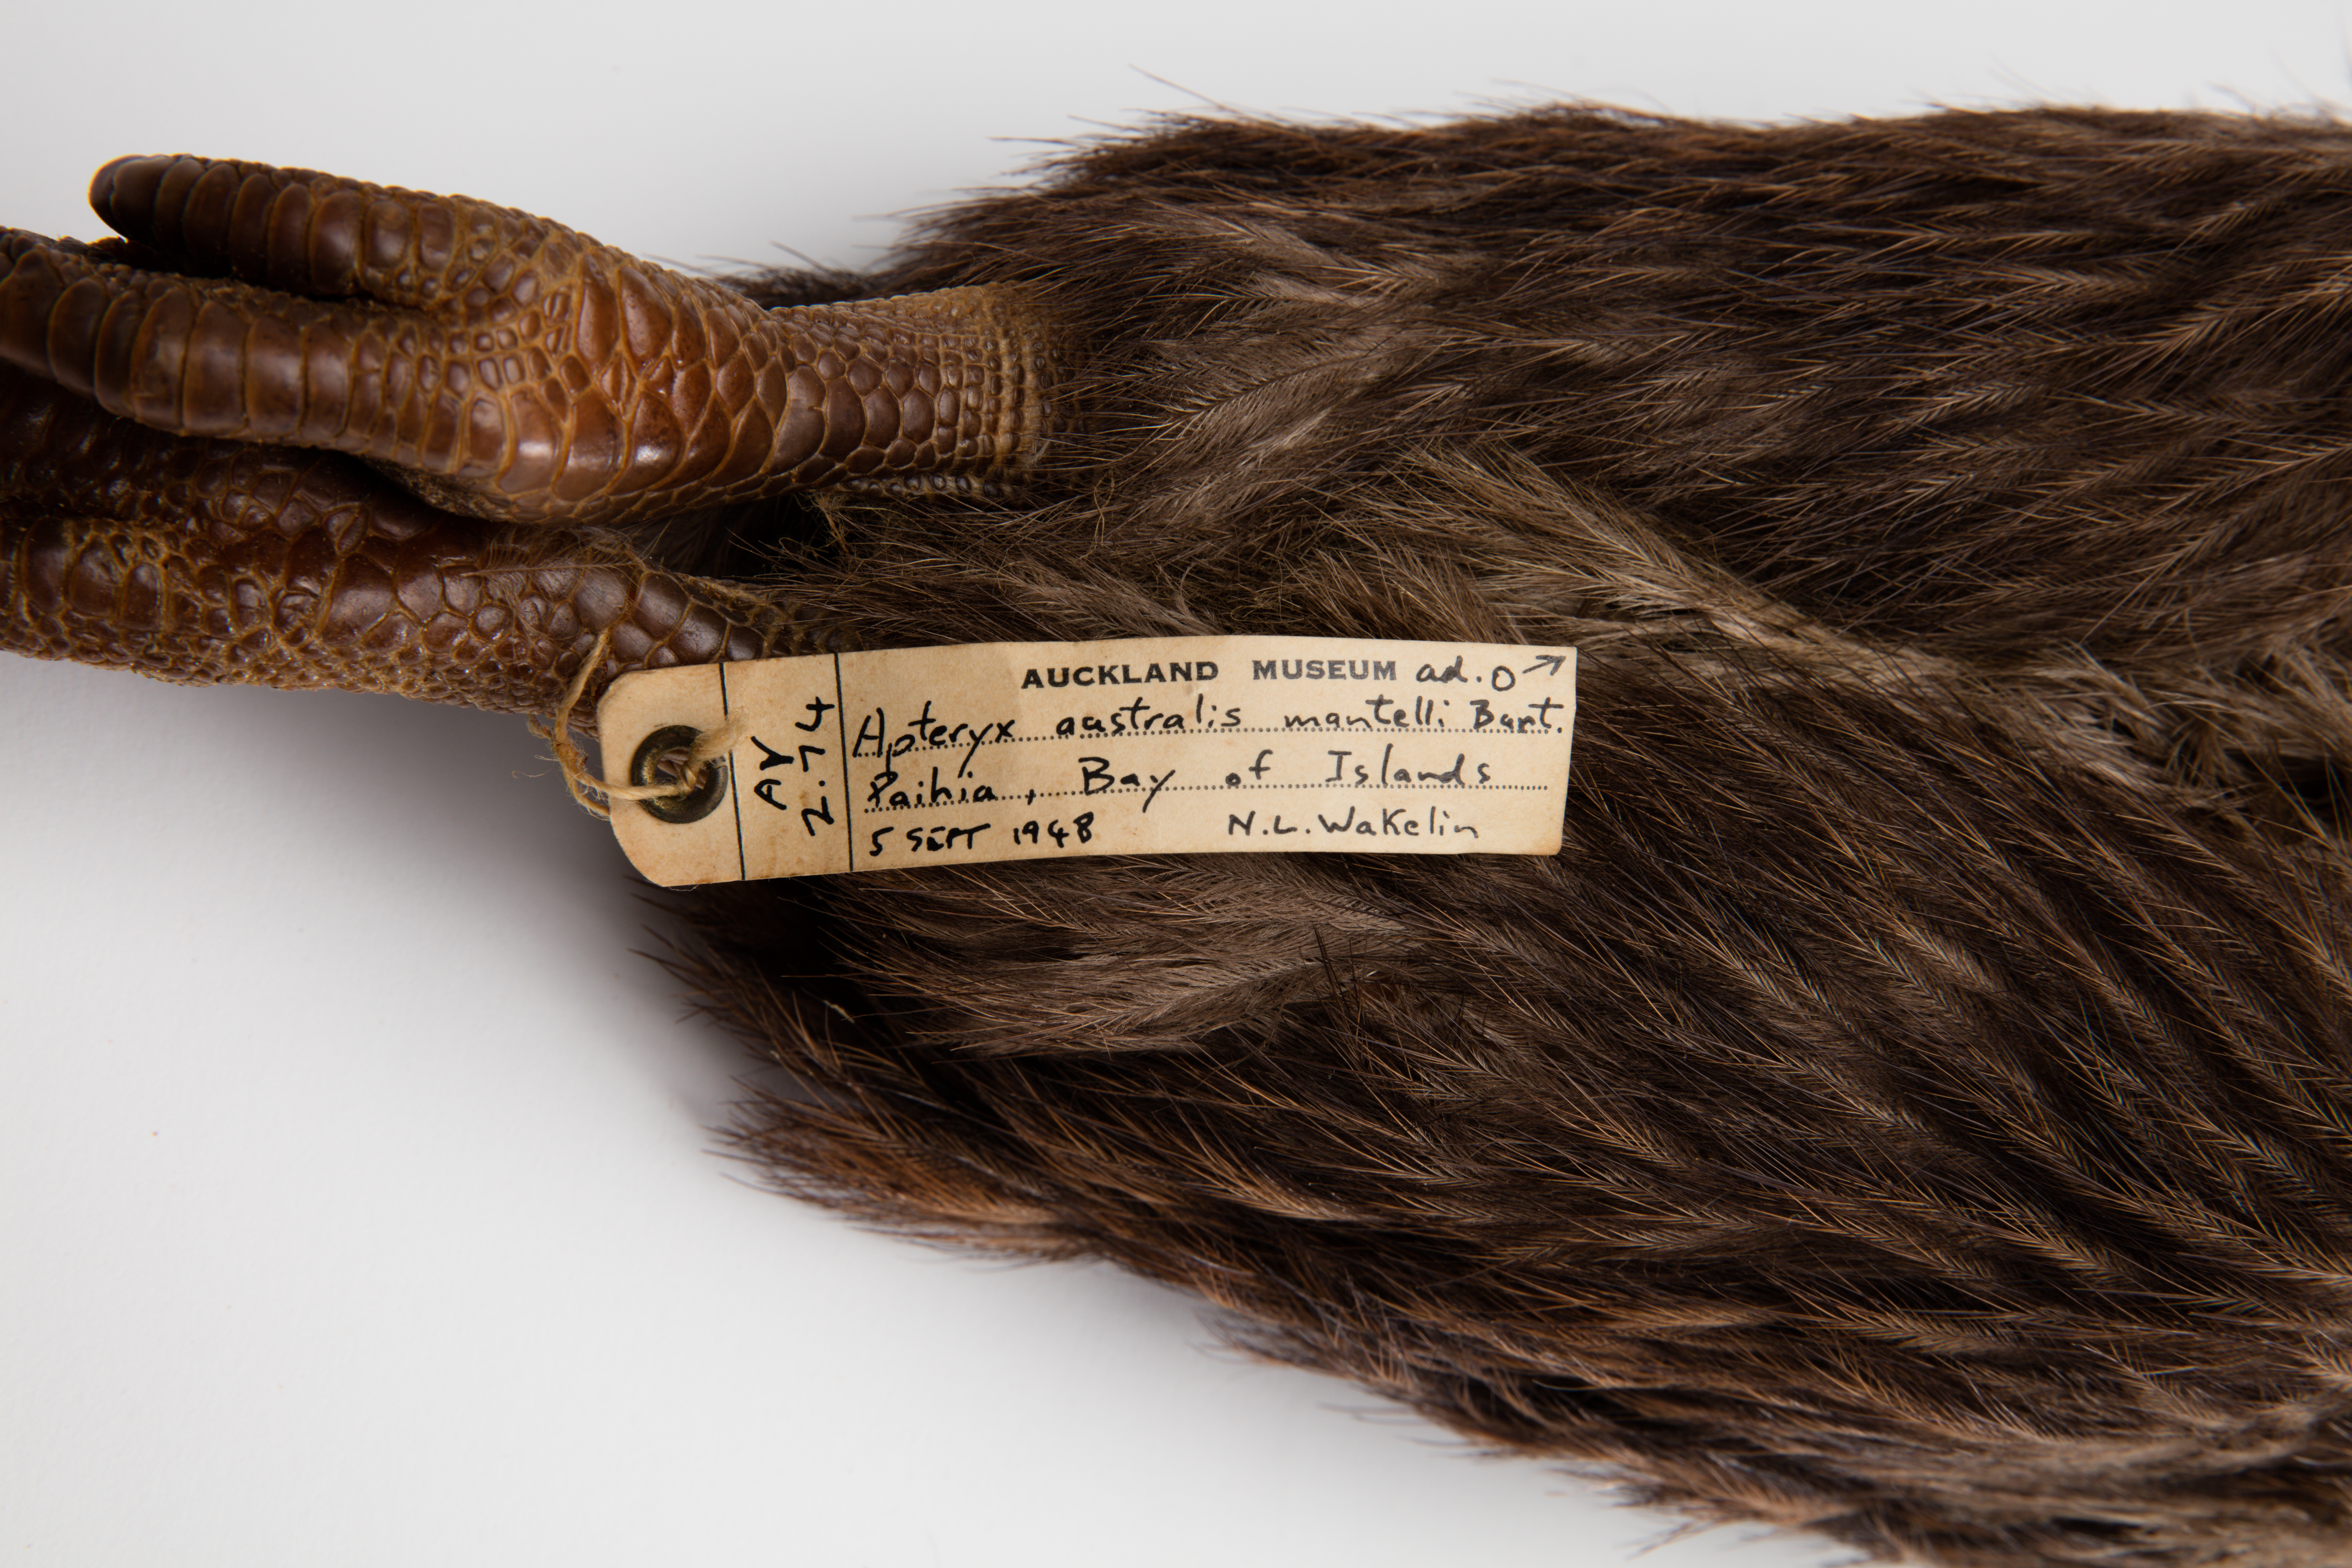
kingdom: Animalia
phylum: Chordata
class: Aves
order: Apterygiformes
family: Apterygidae
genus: Apteryx
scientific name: Apteryx mantelli
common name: North island brown kiwi
